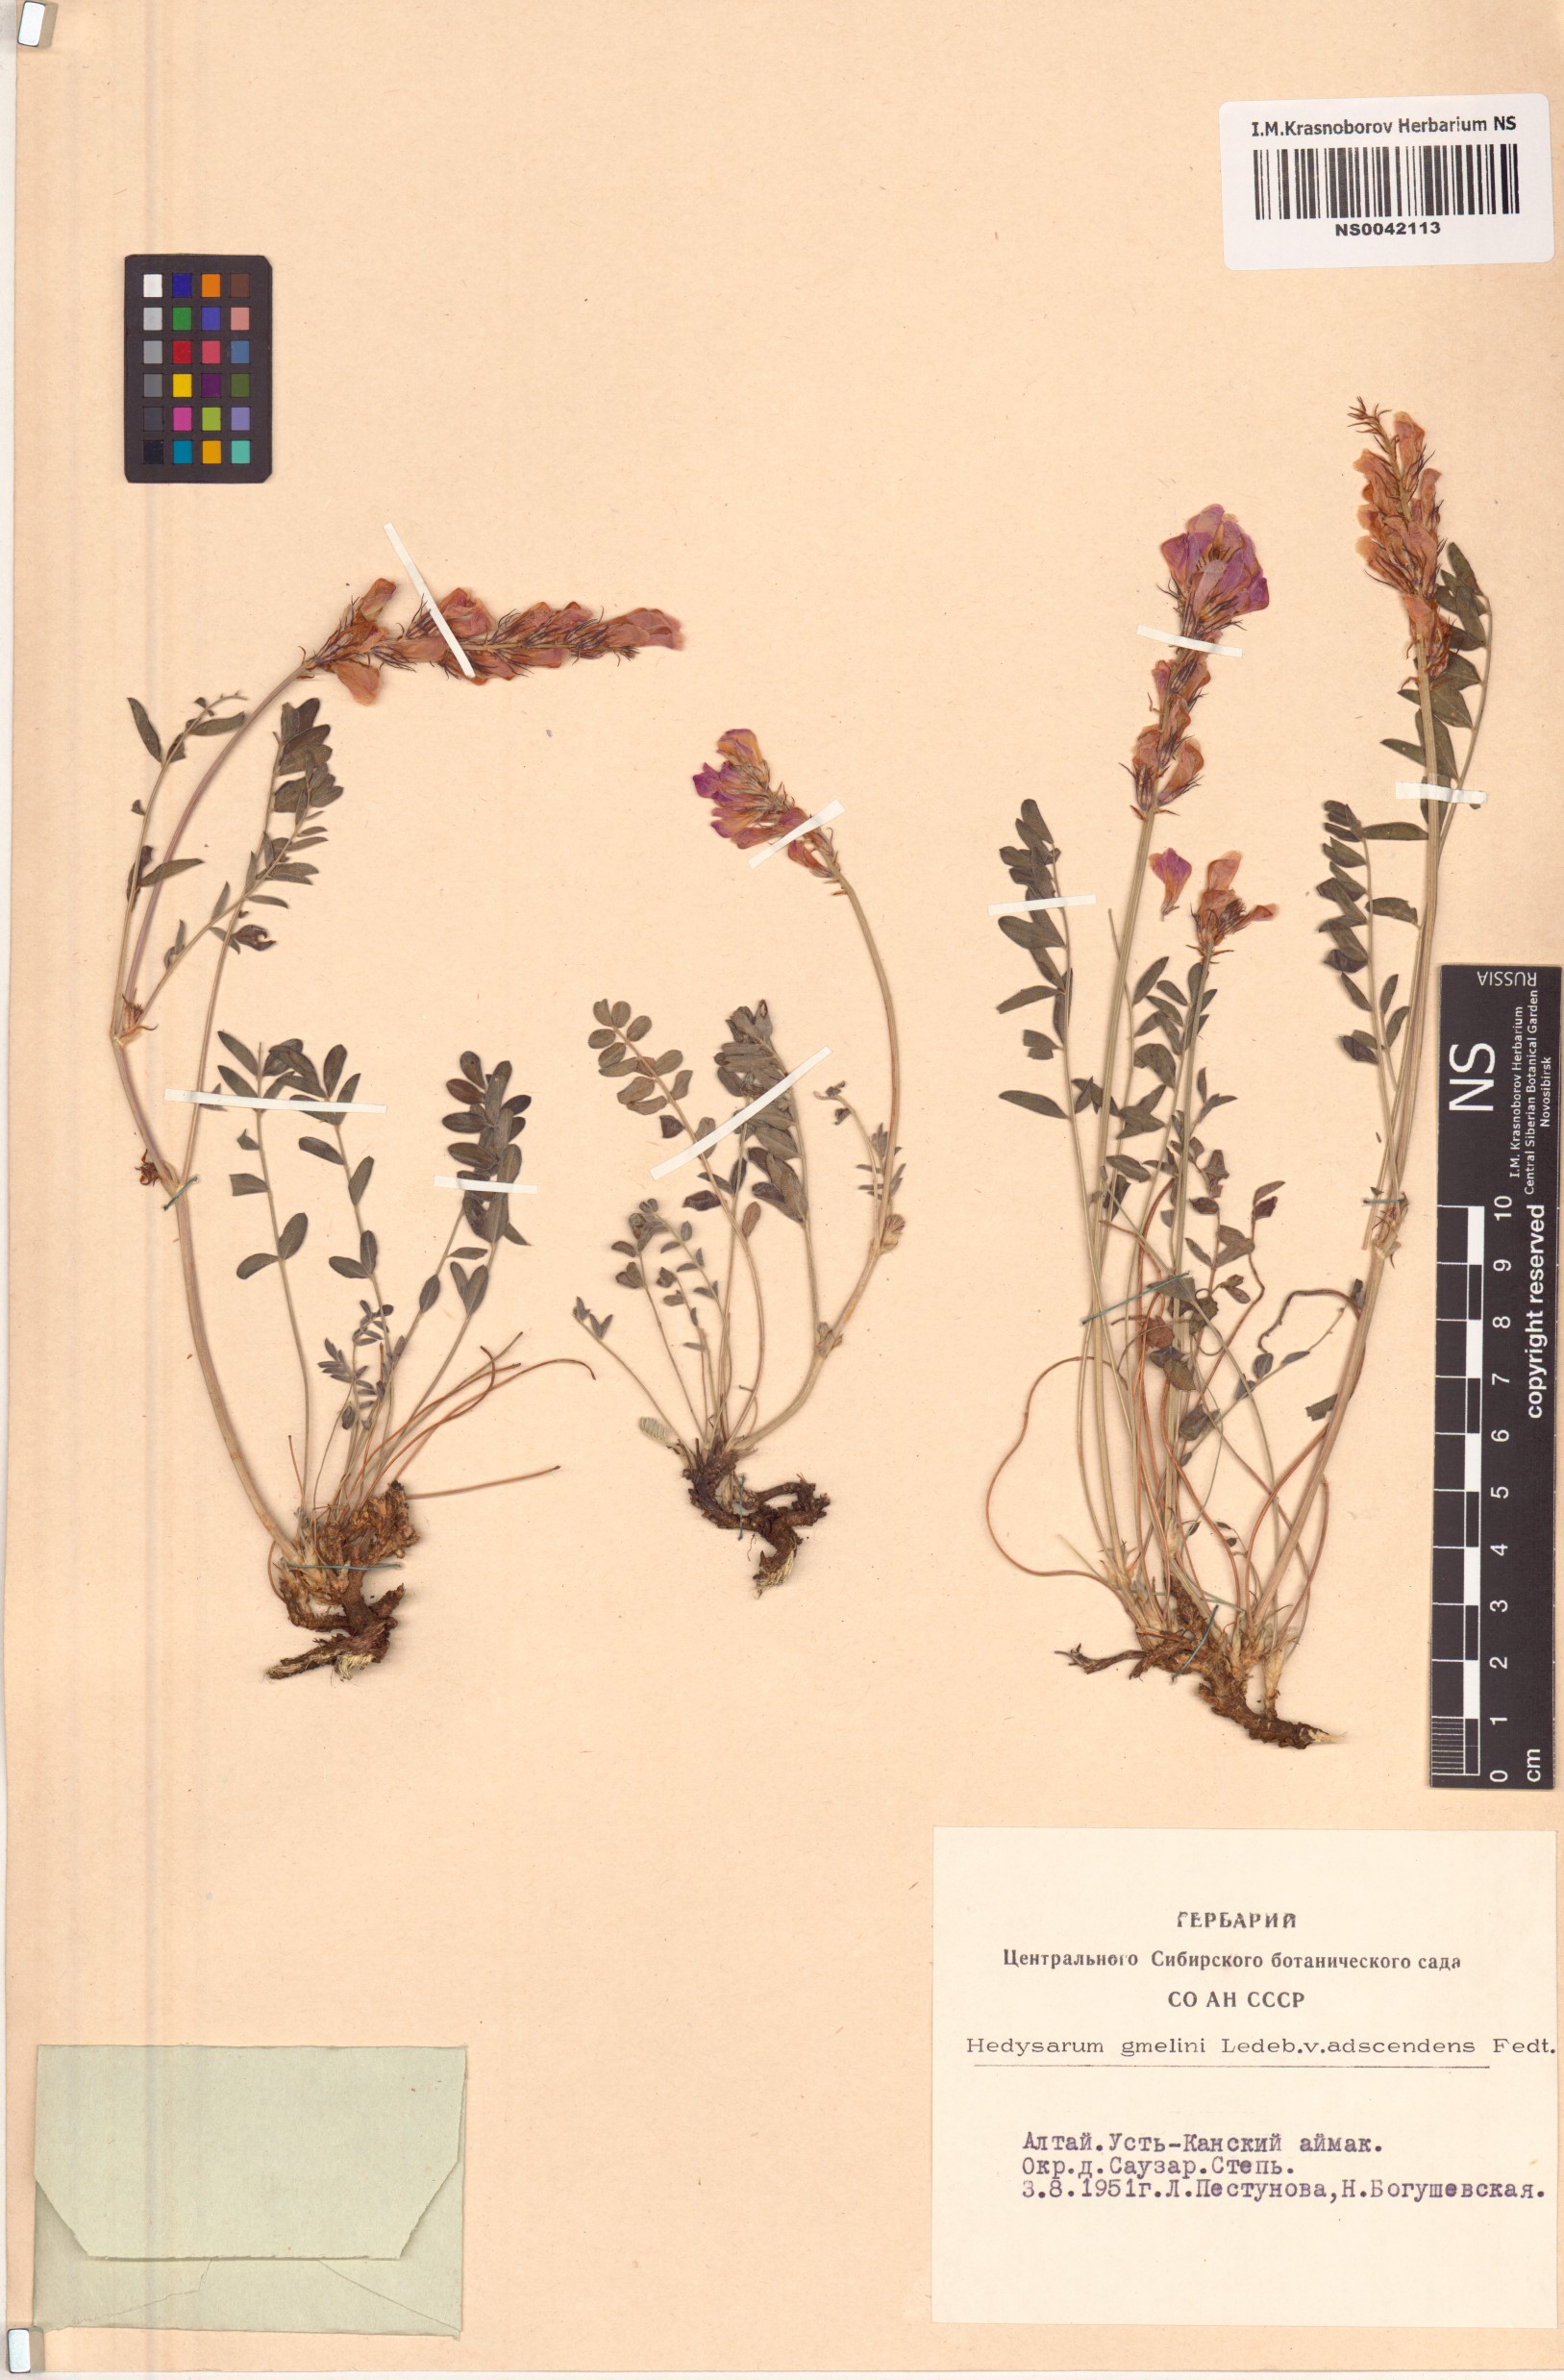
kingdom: Plantae
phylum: Tracheophyta
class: Magnoliopsida
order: Fabales
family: Fabaceae
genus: Hedysarum
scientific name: Hedysarum gmelinii
